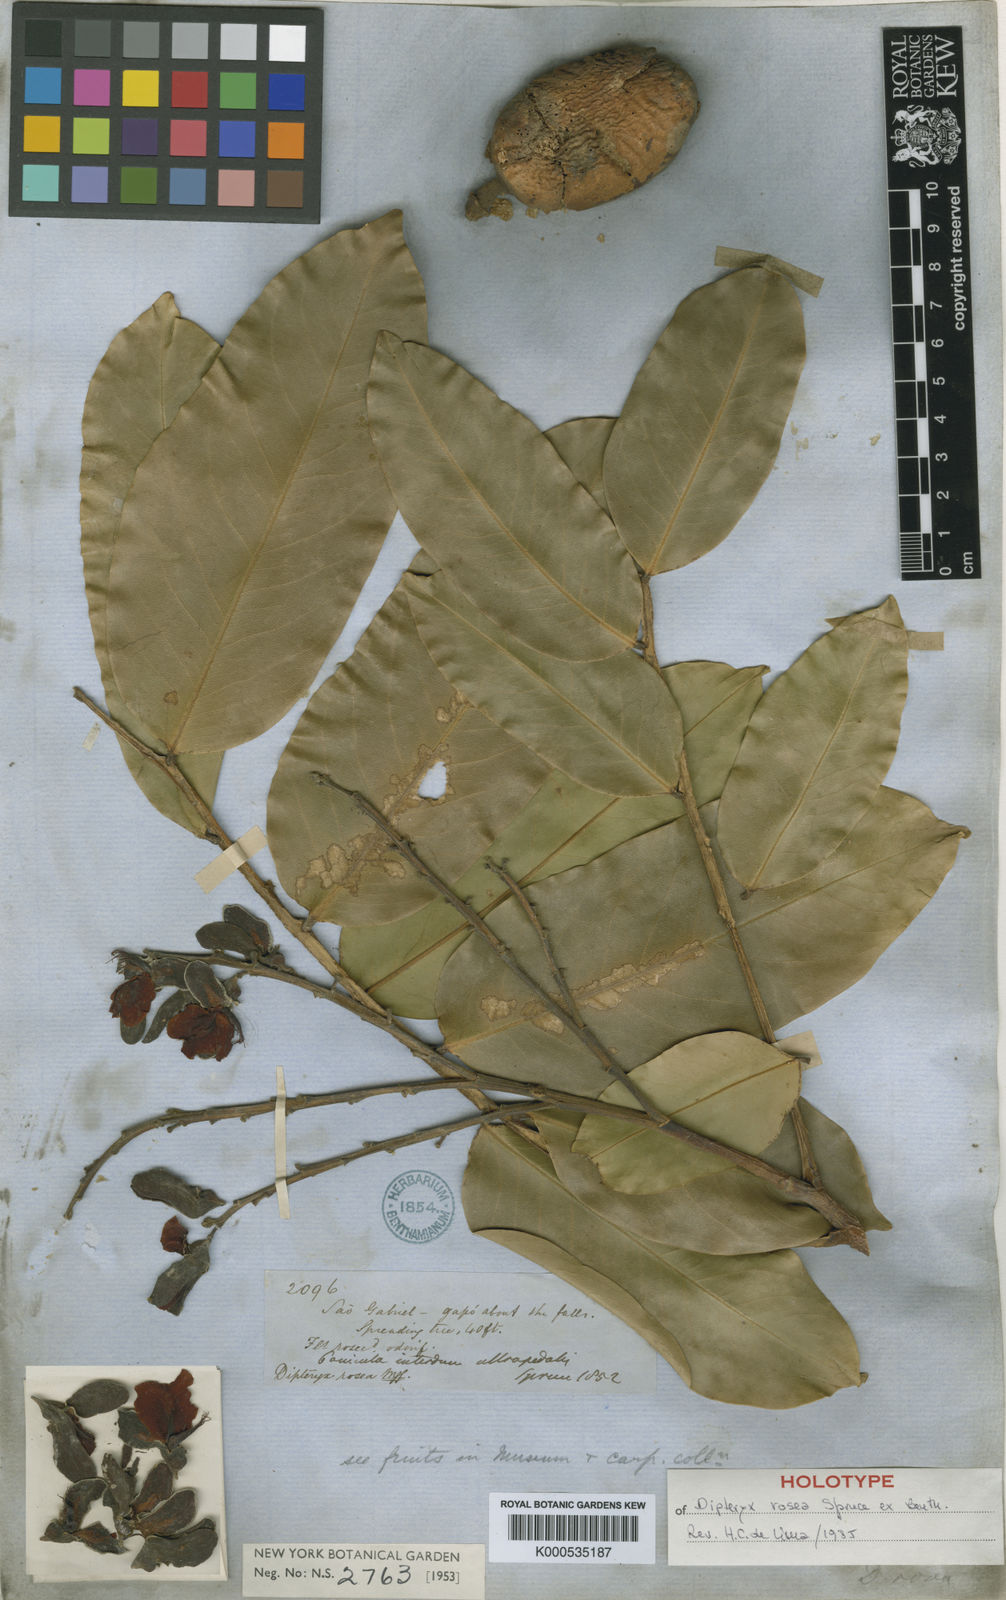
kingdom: Plantae
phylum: Tracheophyta
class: Magnoliopsida
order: Fabales
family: Fabaceae
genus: Dipteryx
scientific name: Dipteryx rosea
